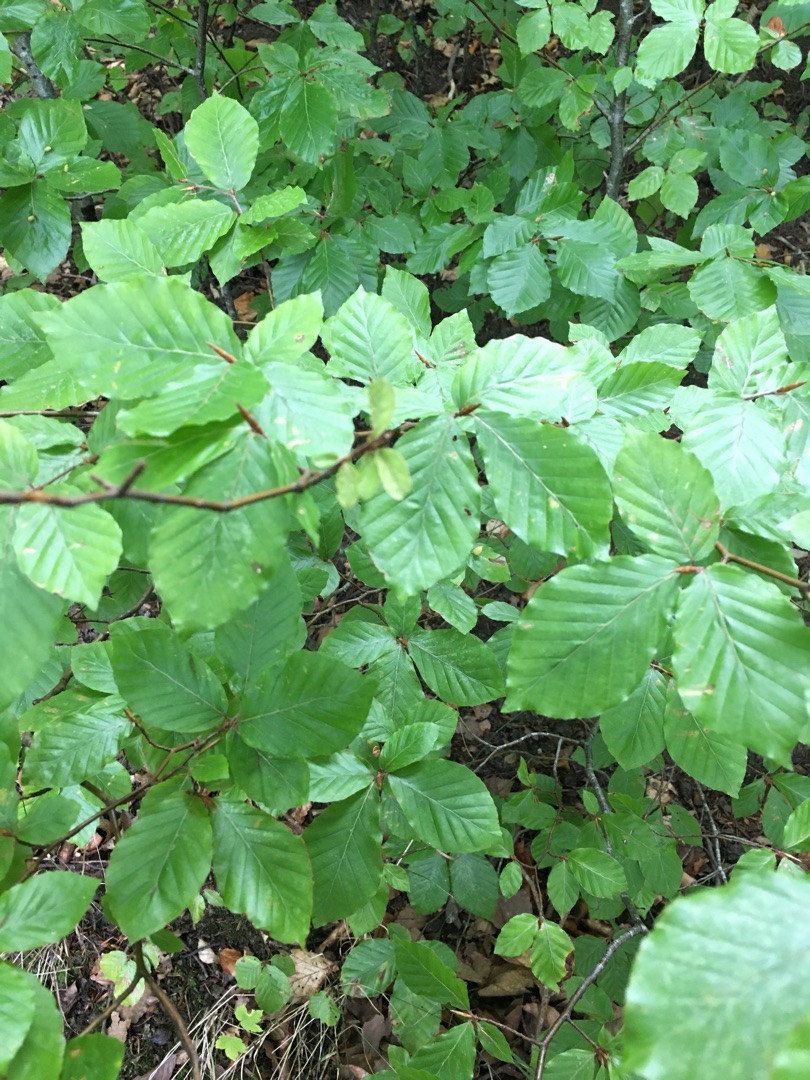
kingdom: Plantae
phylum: Tracheophyta
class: Magnoliopsida
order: Fagales
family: Fagaceae
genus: Fagus
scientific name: Fagus sylvatica
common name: Bøg
